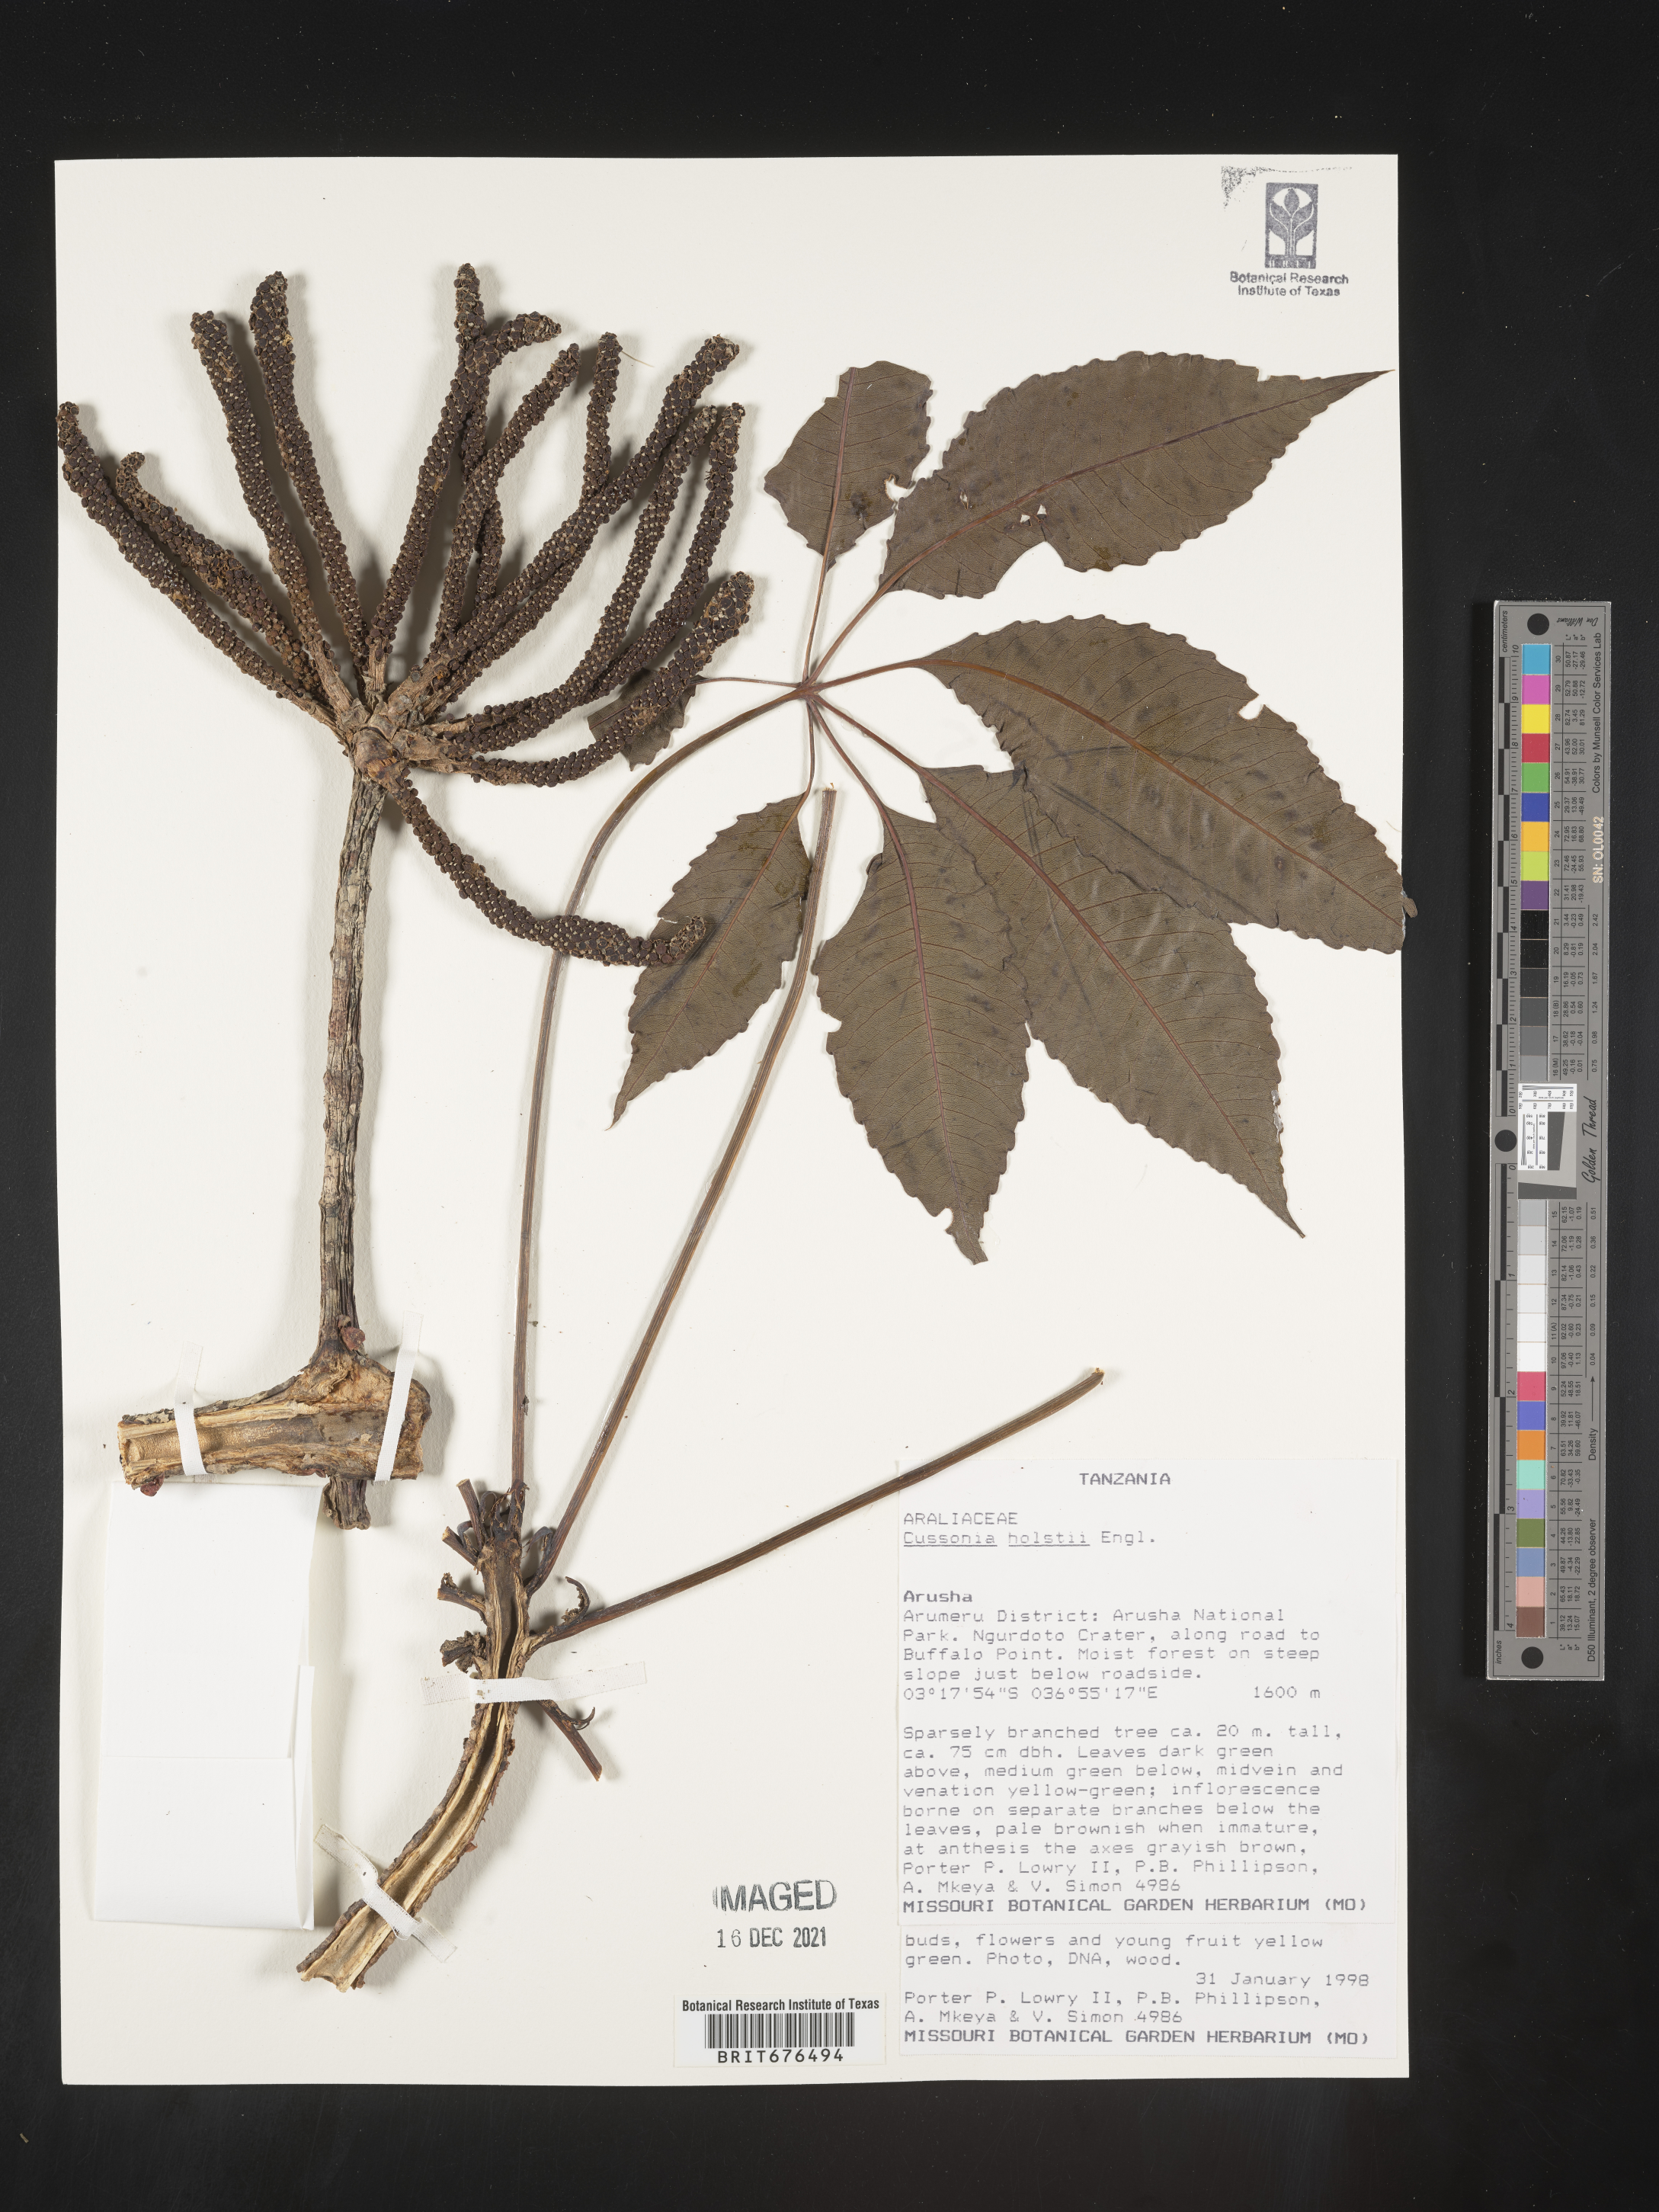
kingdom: Plantae
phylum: Tracheophyta
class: Magnoliopsida
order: Apiales
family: Araliaceae
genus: Cussonia
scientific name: Cussonia
